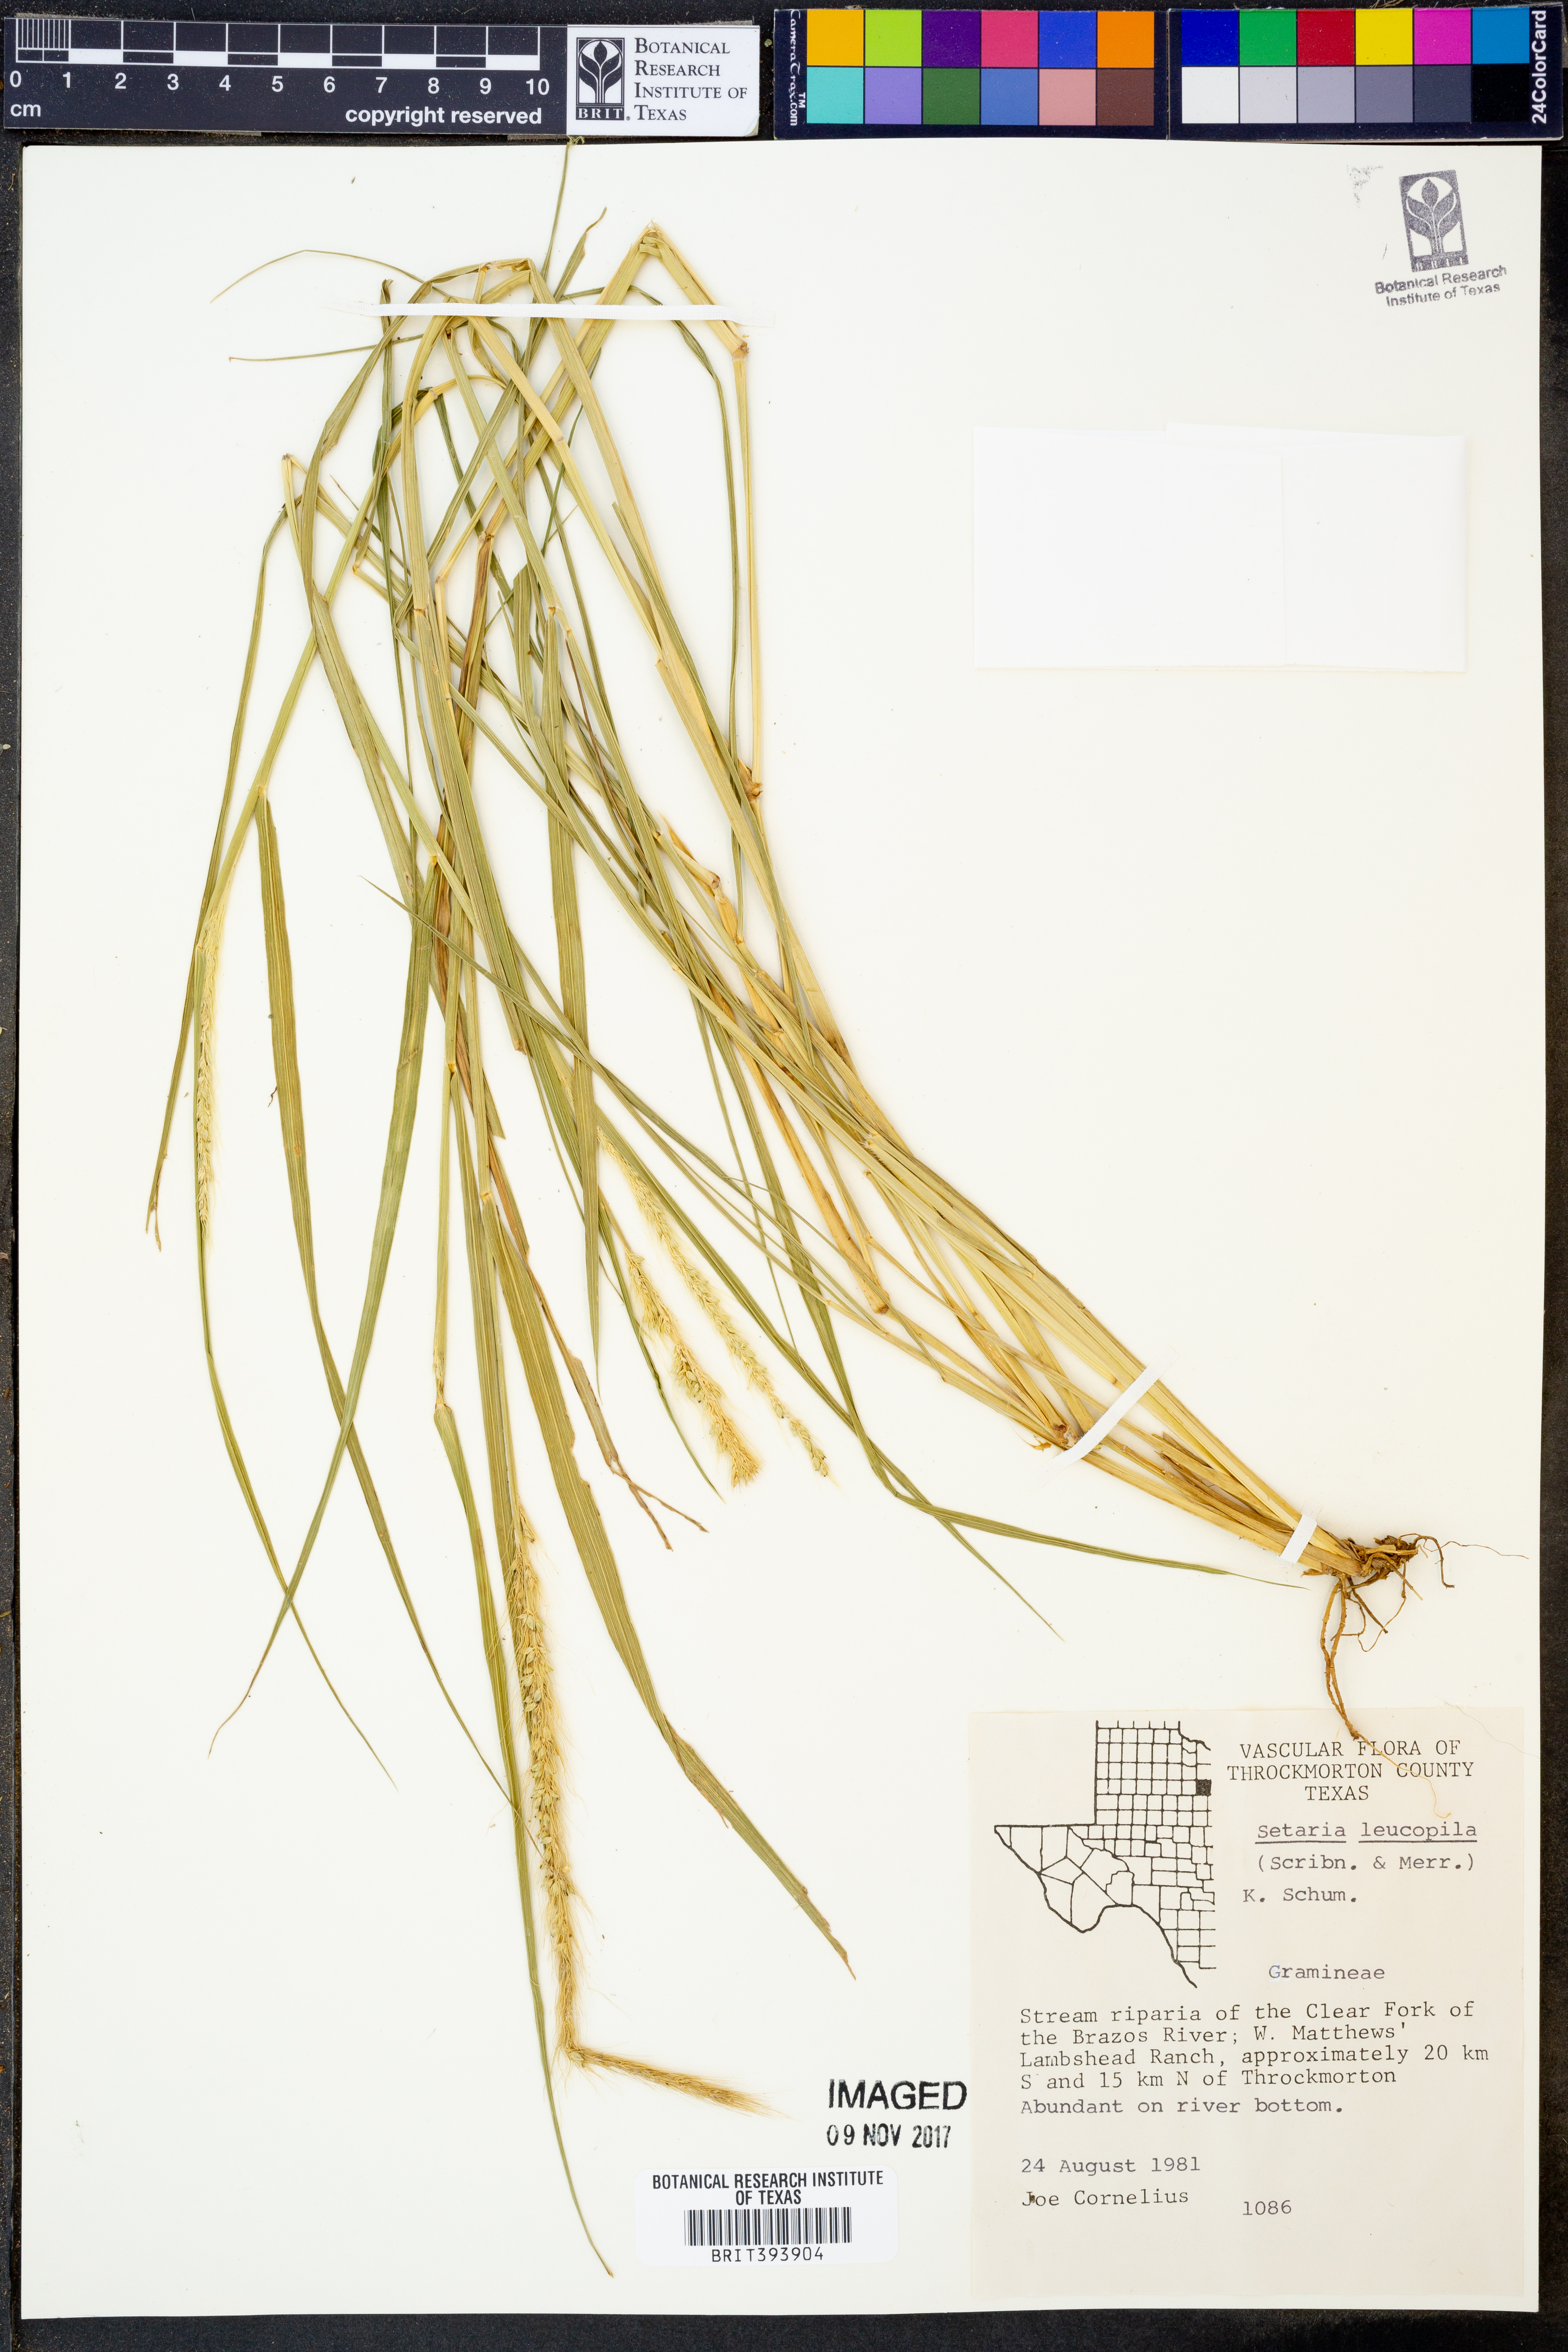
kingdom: Plantae
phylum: Tracheophyta
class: Liliopsida
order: Poales
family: Poaceae
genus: Setaria
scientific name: Setaria leucopila
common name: Plains bristle grass
